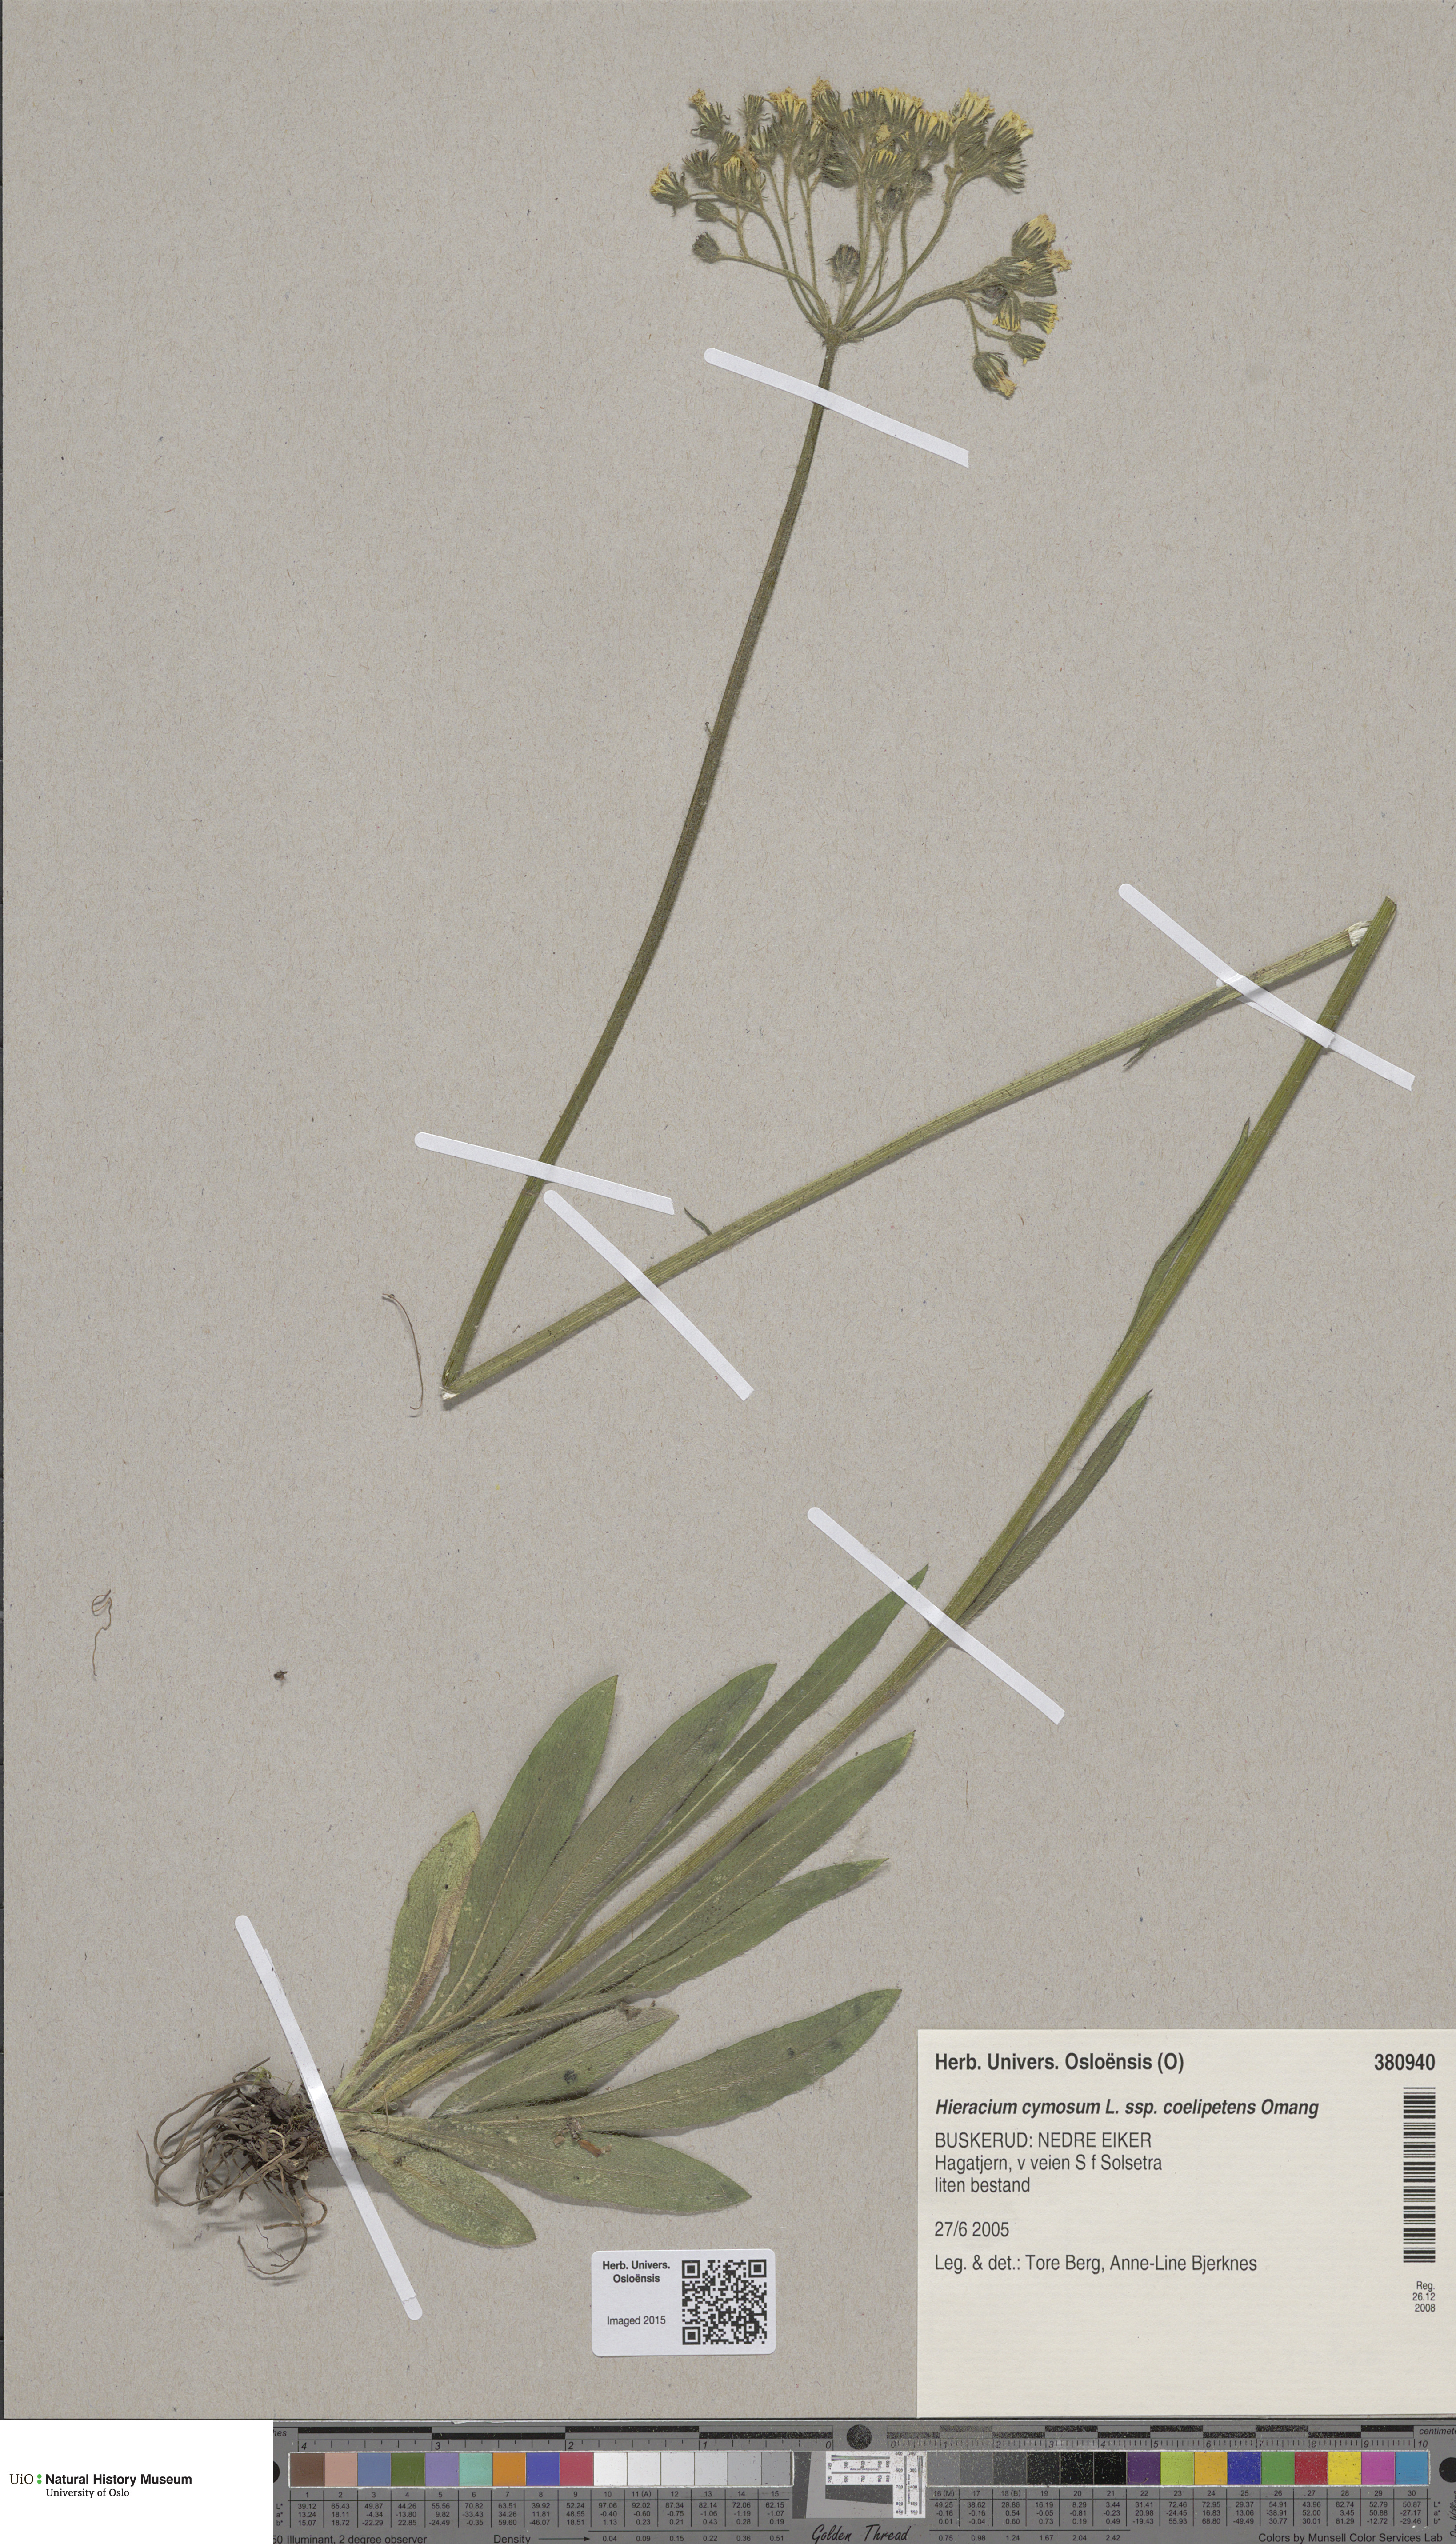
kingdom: Plantae
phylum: Tracheophyta
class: Magnoliopsida
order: Asterales
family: Asteraceae
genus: Pilosella
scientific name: Pilosella cymosa
